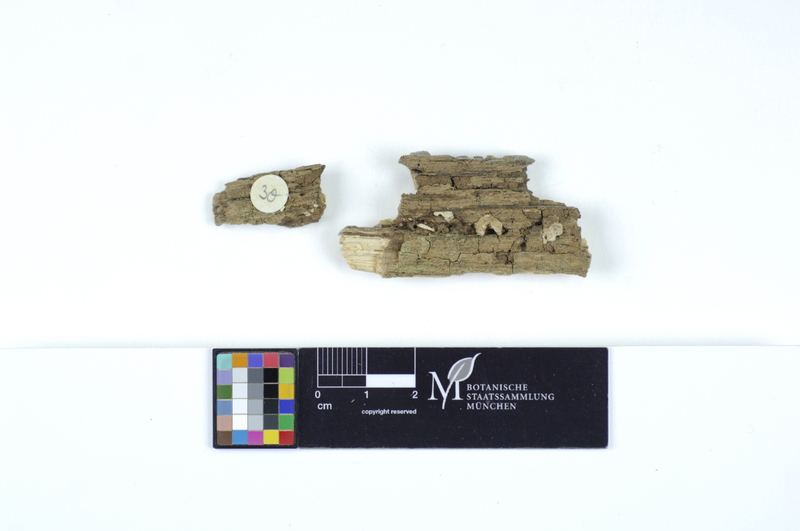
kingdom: Plantae
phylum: Tracheophyta
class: Magnoliopsida
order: Fagales
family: Fagaceae
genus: Quercus
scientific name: Quercus
